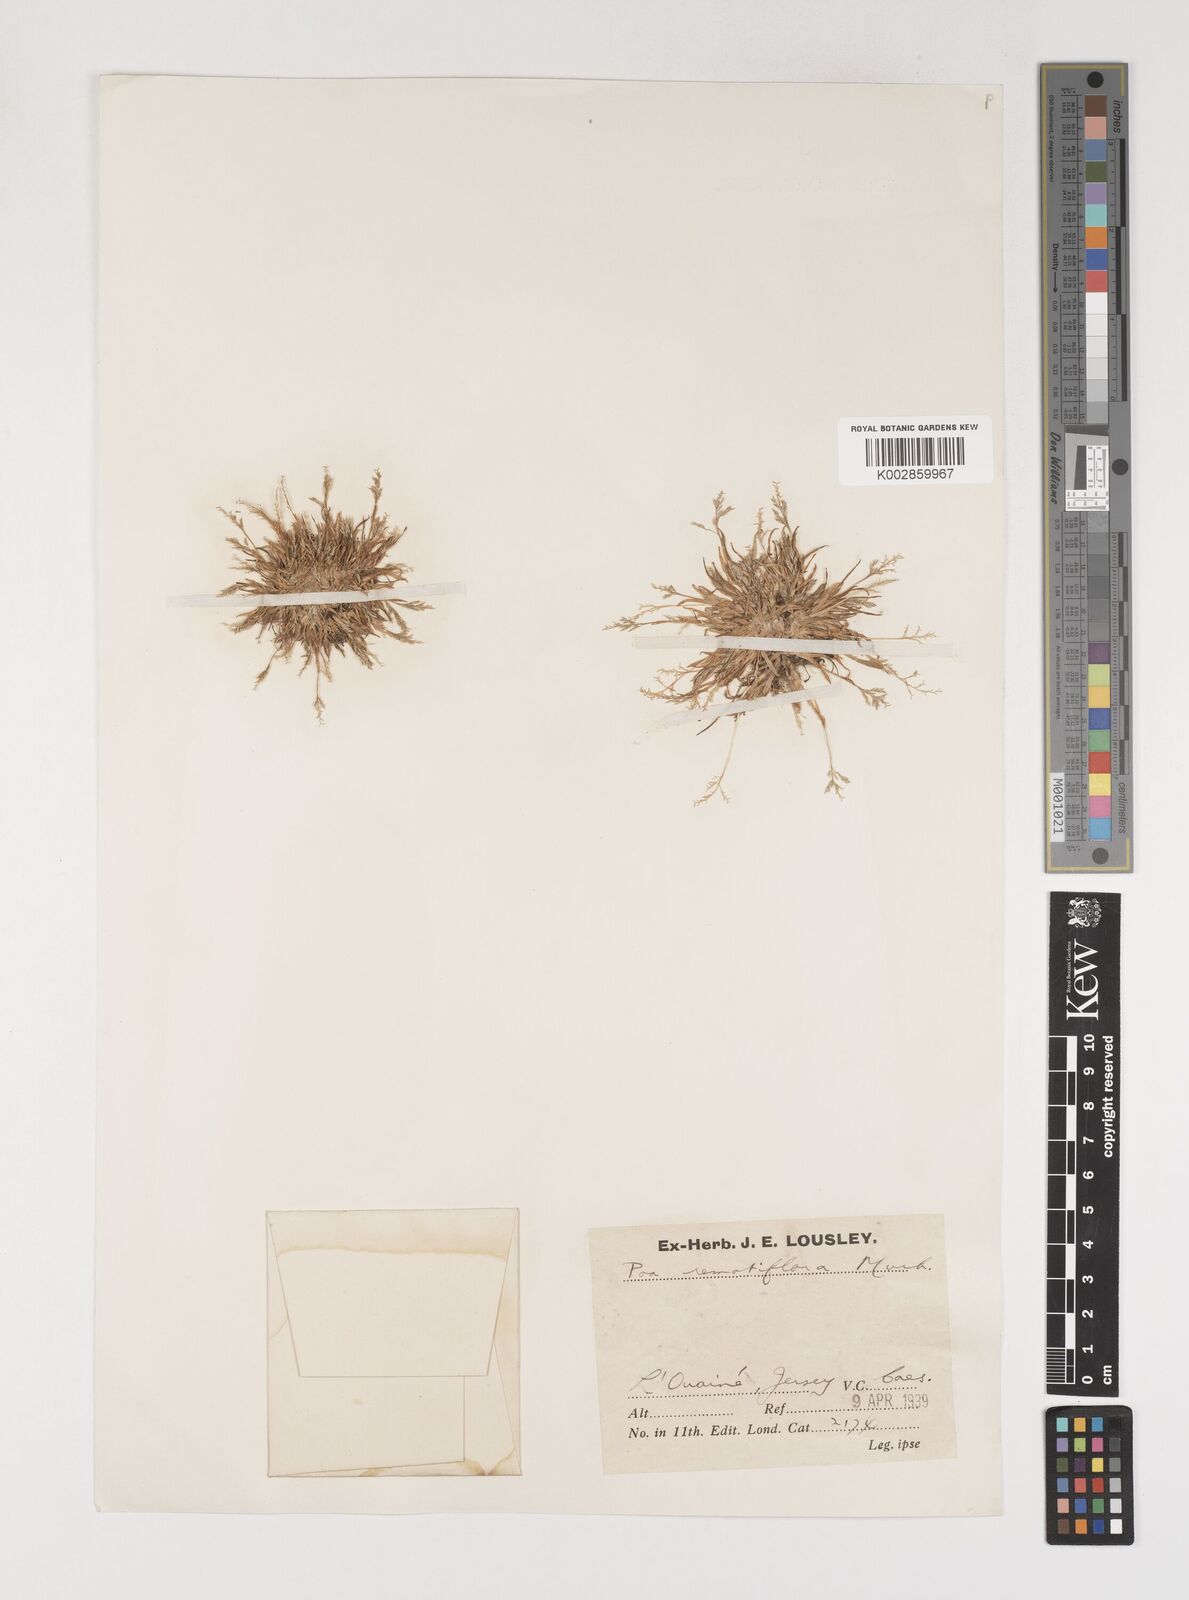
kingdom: Plantae
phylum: Tracheophyta
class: Liliopsida
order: Poales
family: Poaceae
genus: Poa
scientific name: Poa infirma
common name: Weak bluegrass
